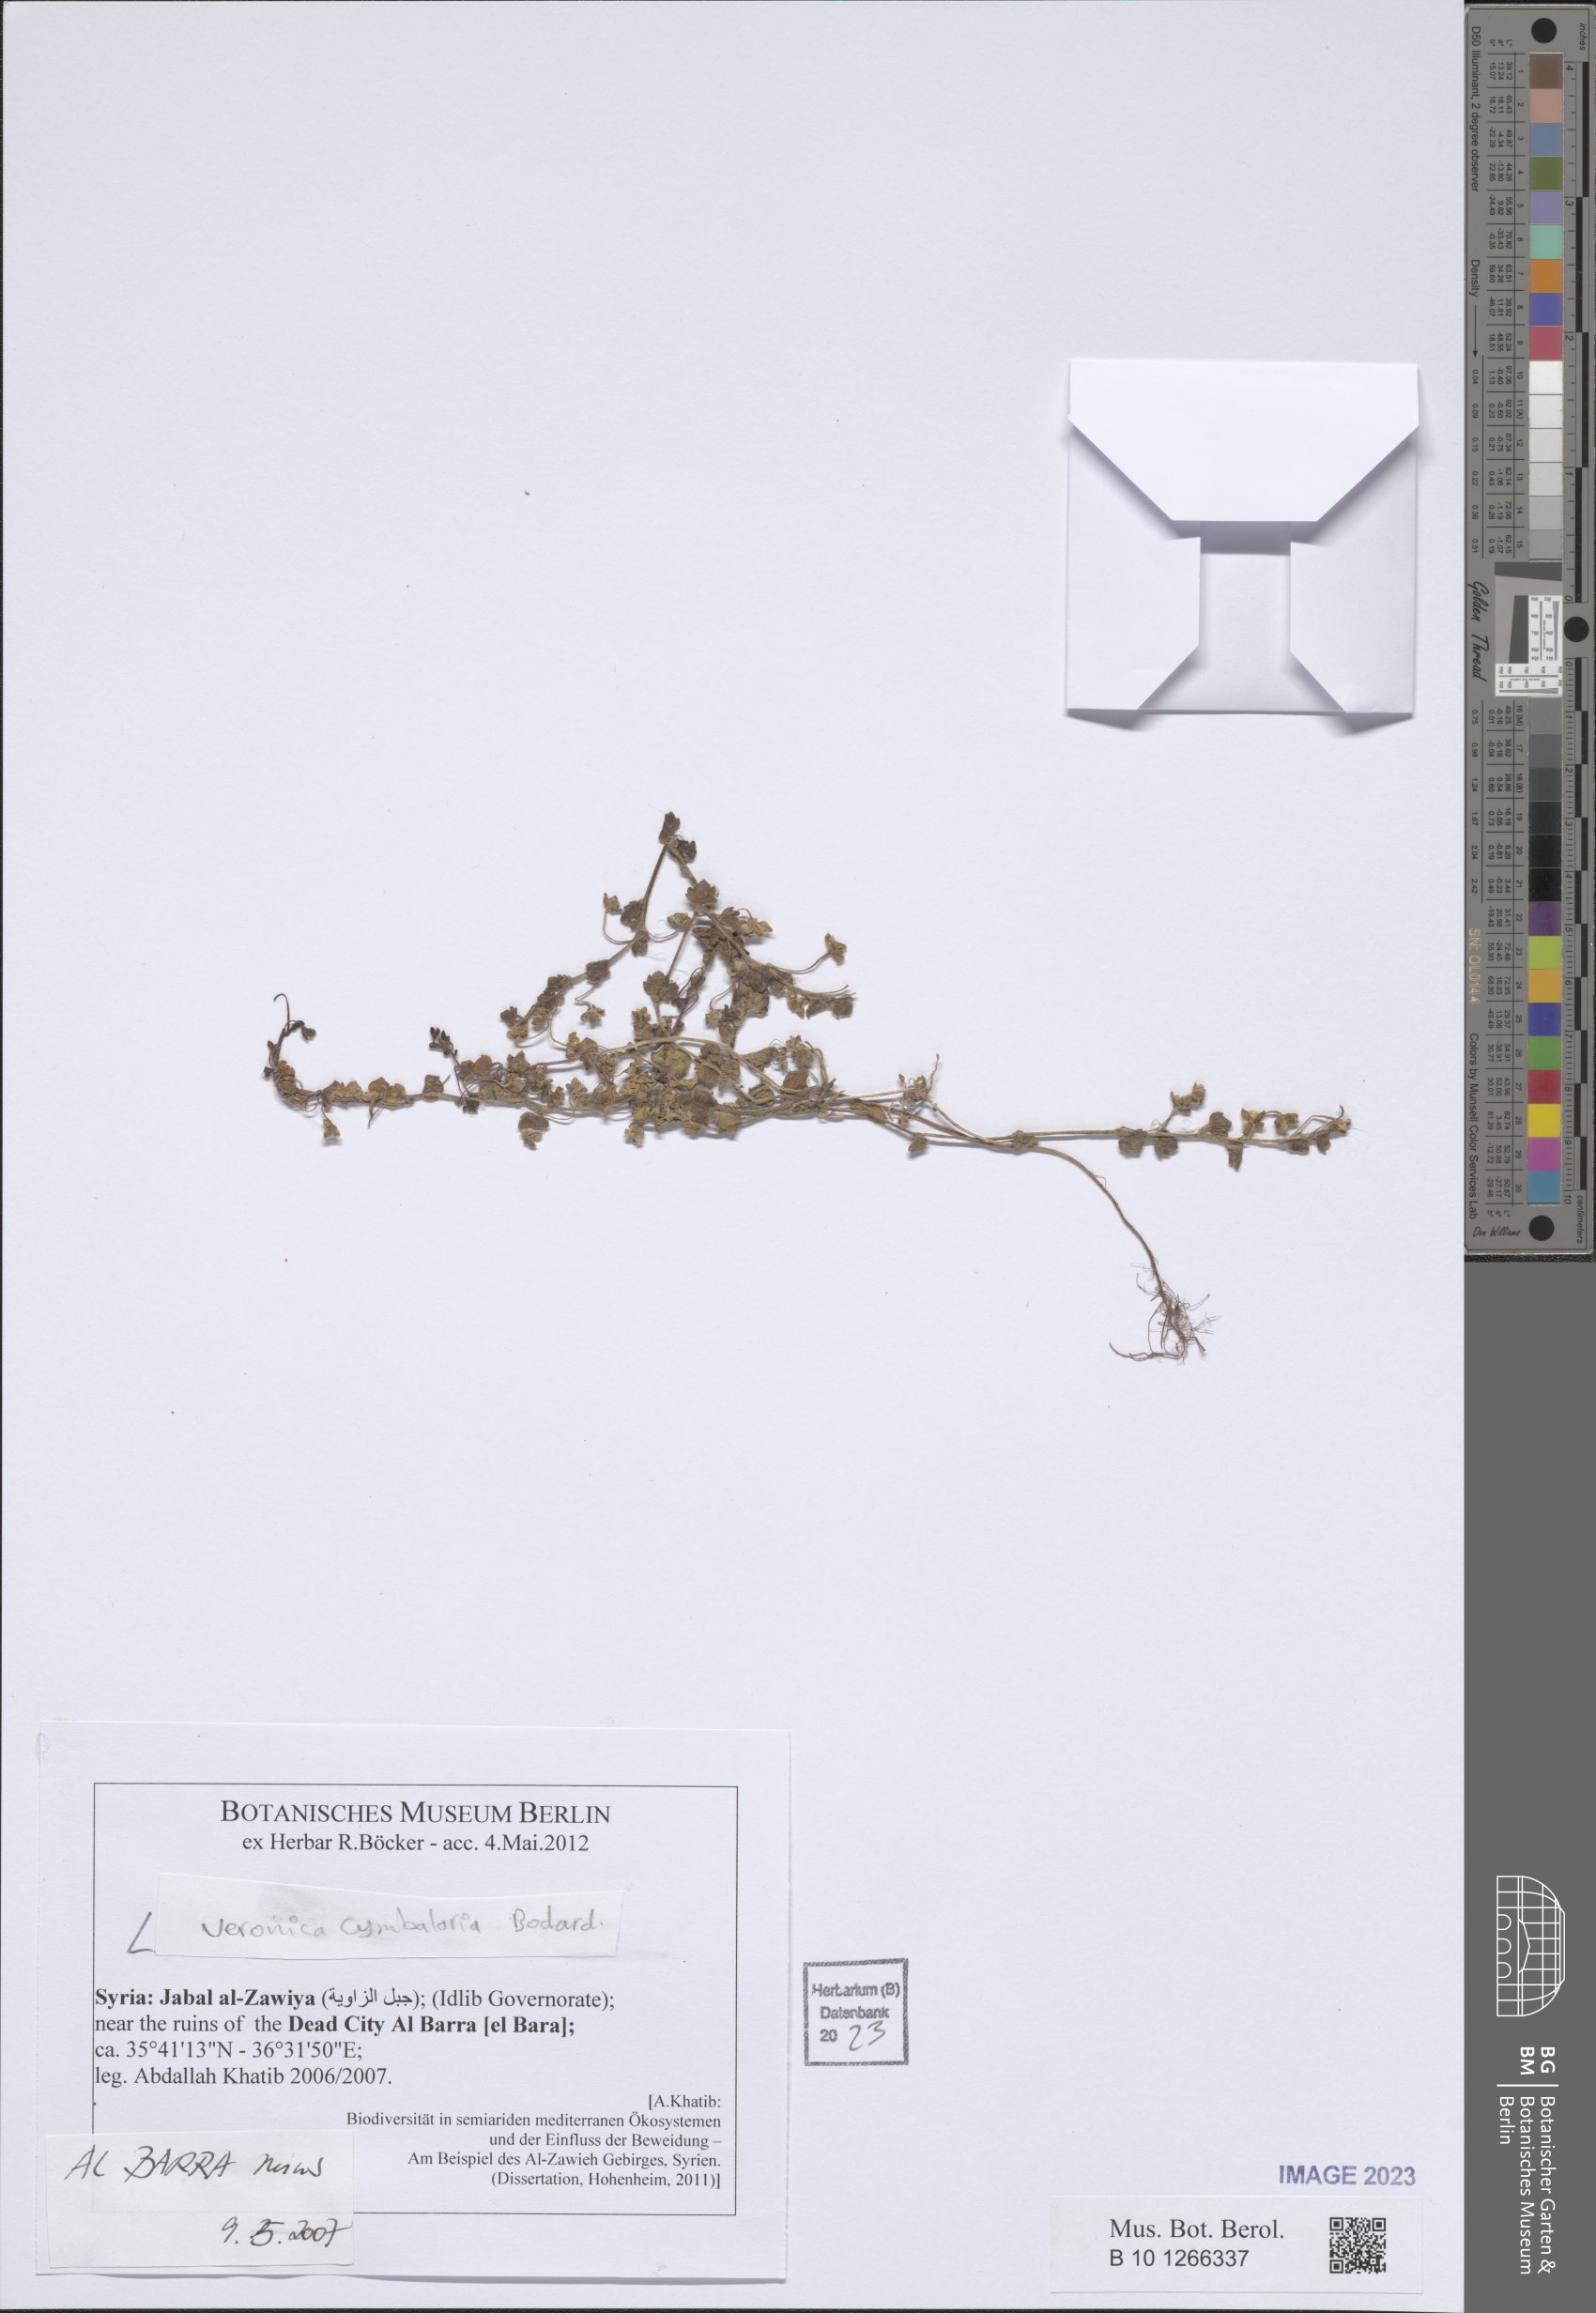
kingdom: Plantae
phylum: Tracheophyta
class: Magnoliopsida
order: Lamiales
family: Plantaginaceae
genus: Veronica
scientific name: Veronica cymbalaria
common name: Pale speedwell
